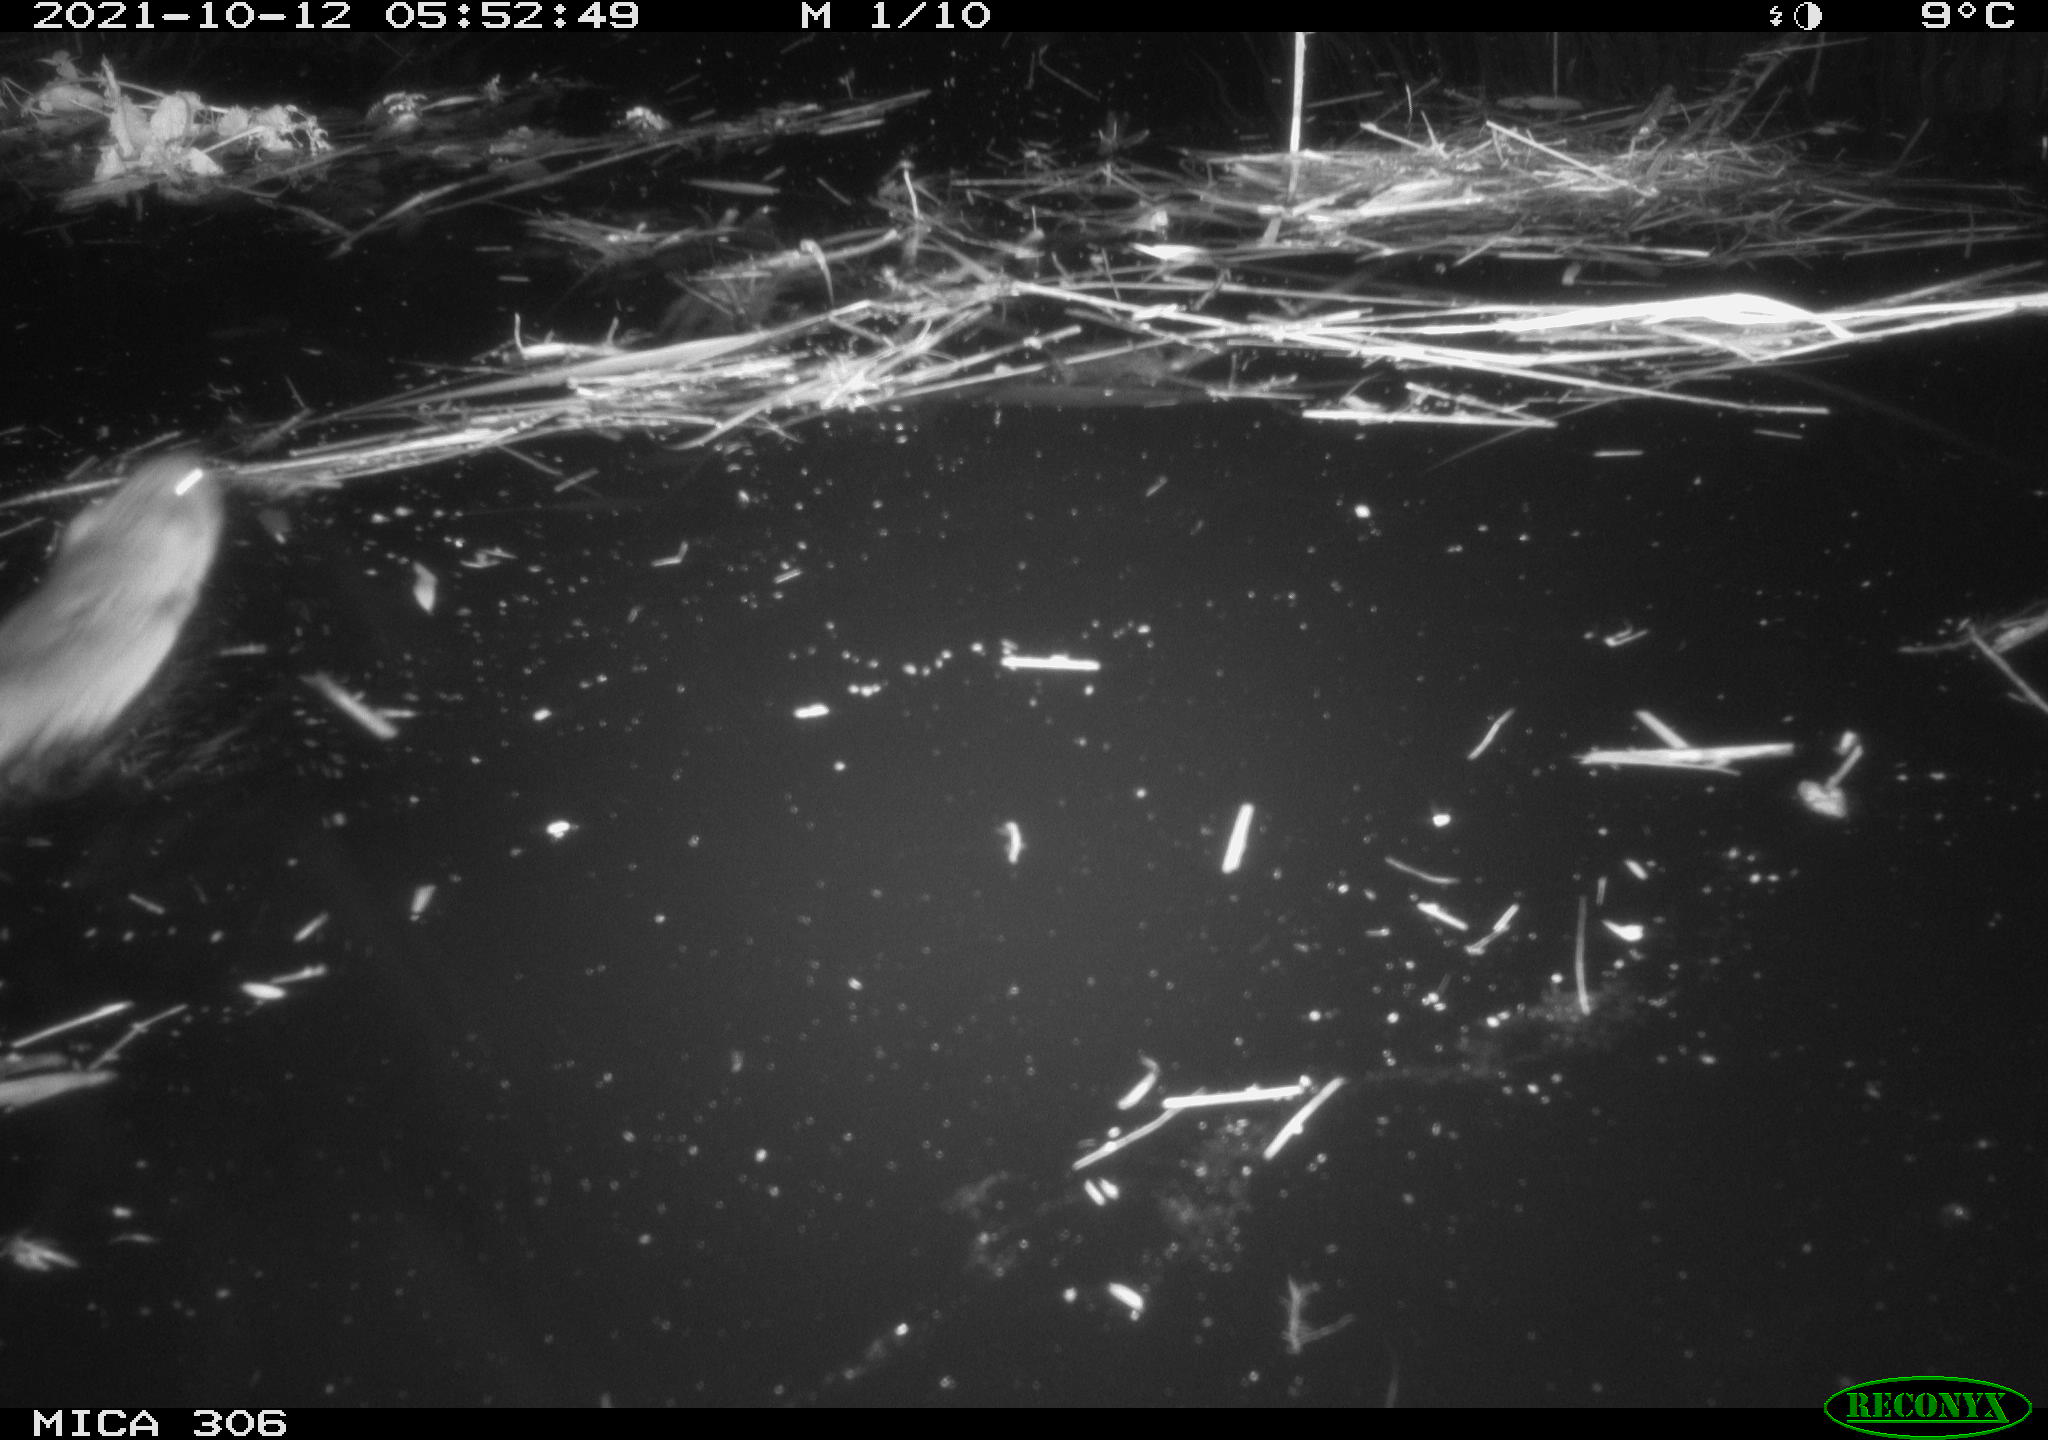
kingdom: Animalia
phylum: Chordata
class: Mammalia
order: Rodentia
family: Cricetidae
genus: Ondatra
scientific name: Ondatra zibethicus
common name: Muskrat
